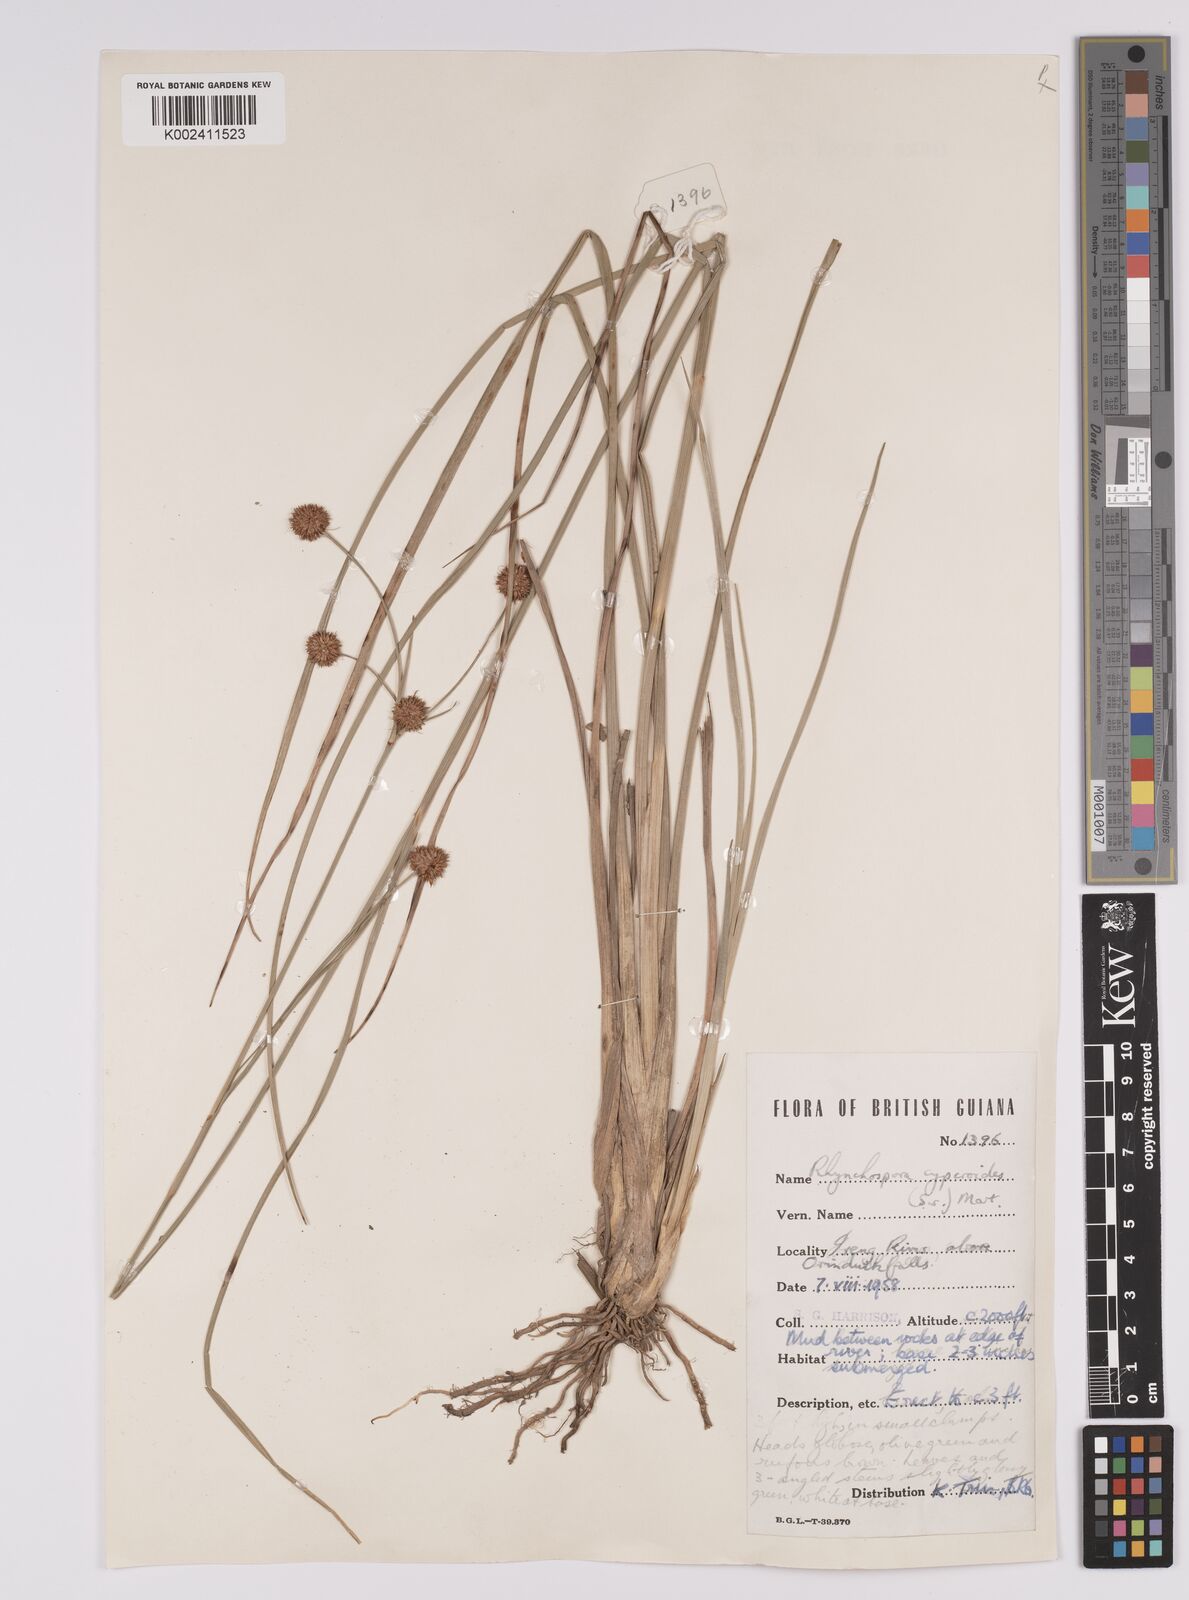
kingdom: Plantae
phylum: Tracheophyta
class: Liliopsida
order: Poales
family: Cyperaceae
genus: Rhynchospora
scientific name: Rhynchospora holoschoenoides
